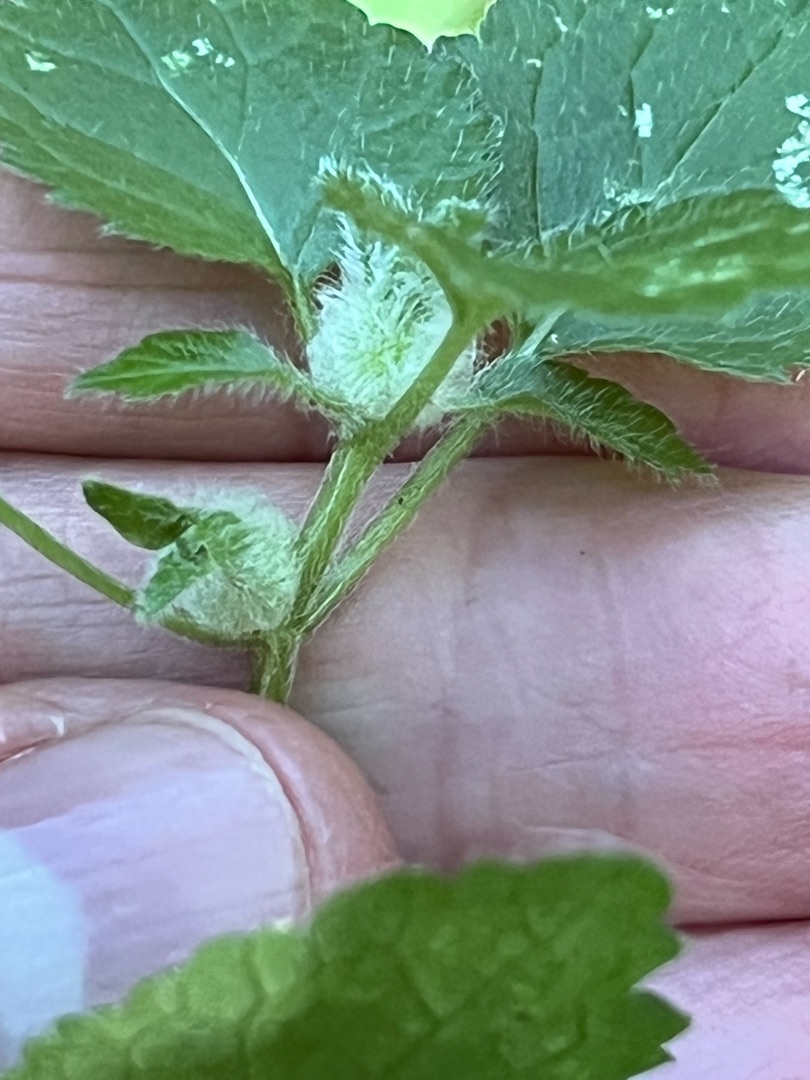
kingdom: Animalia
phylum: Arthropoda
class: Insecta
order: Diptera
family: Cecidomyiidae
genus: Dasineura
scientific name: Dasineura strumosa
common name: Guldnældegalmyg
